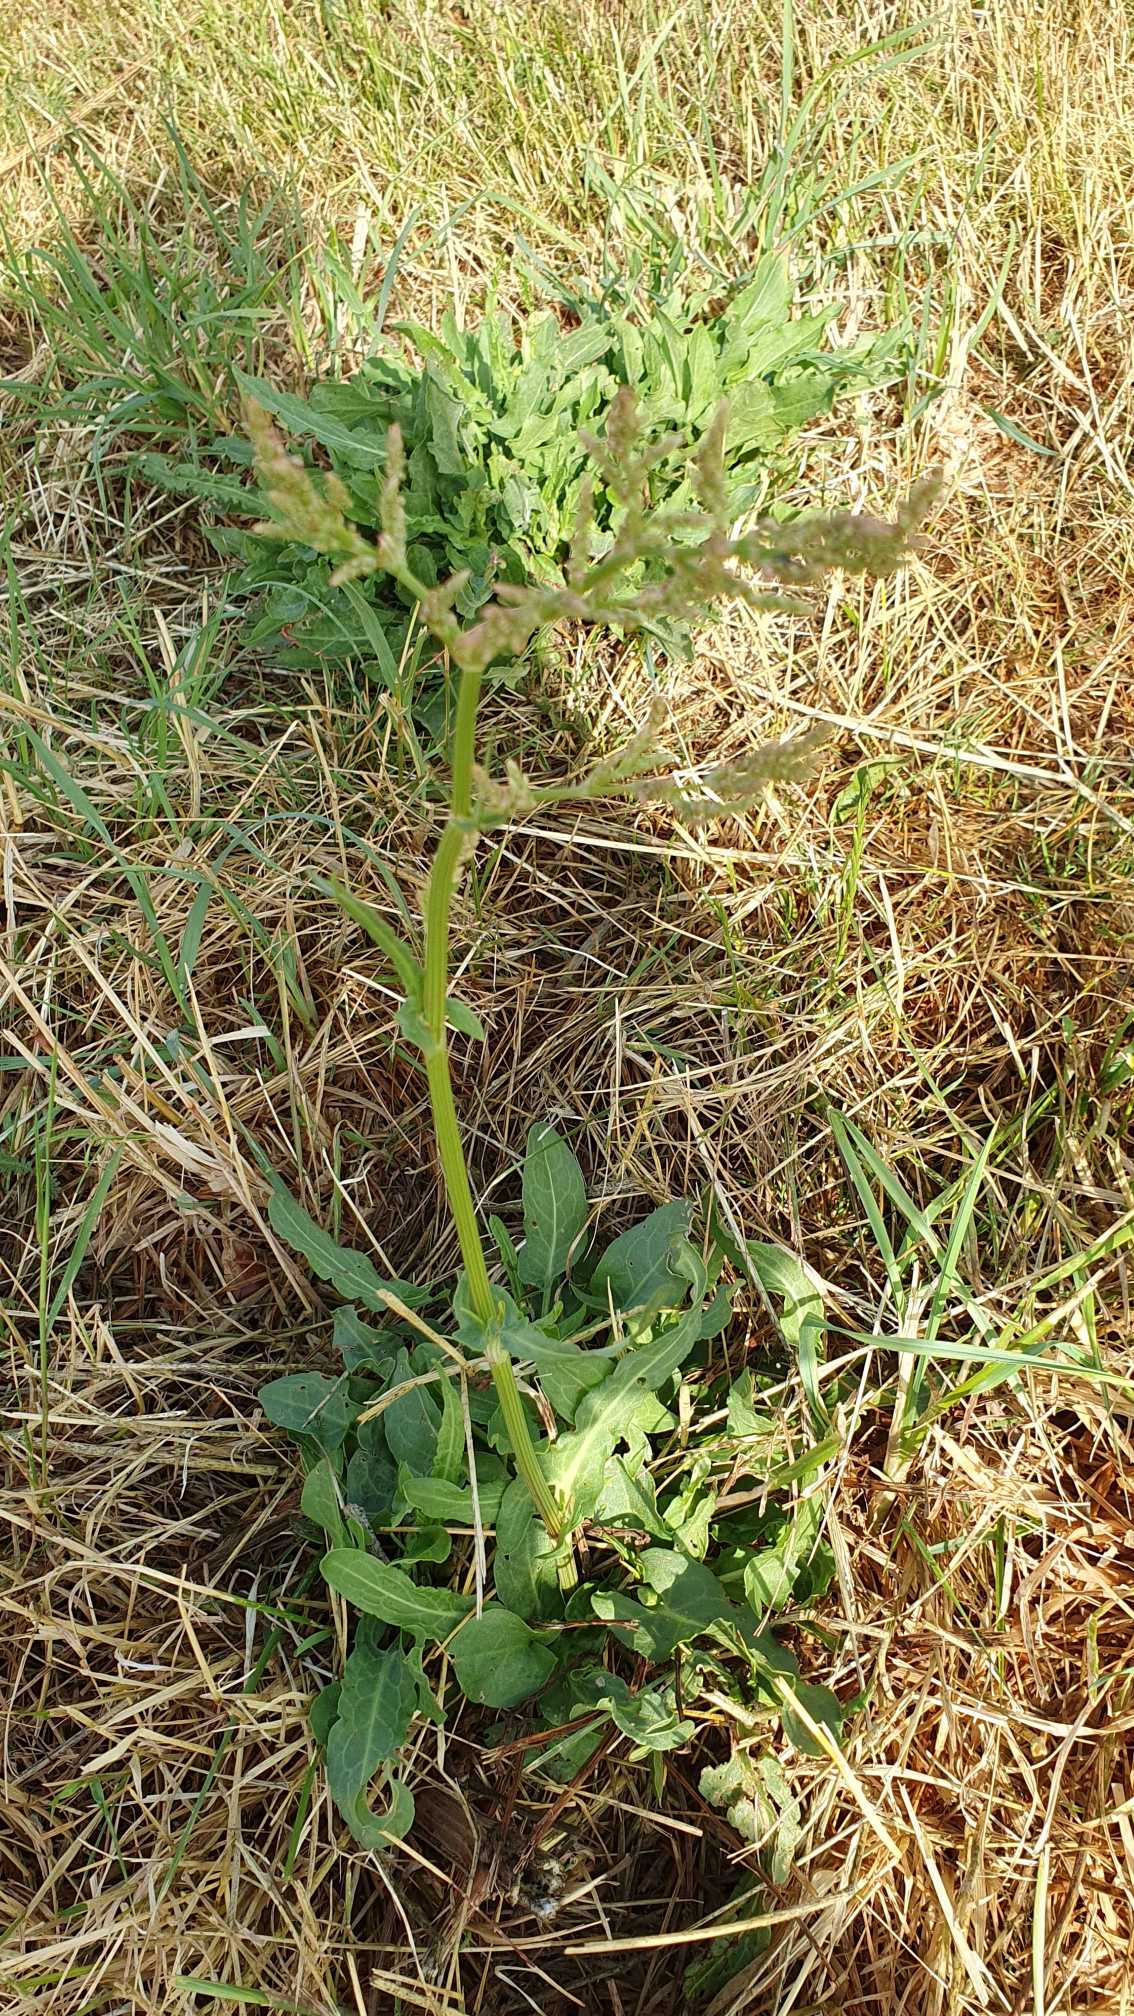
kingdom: Plantae
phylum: Tracheophyta
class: Magnoliopsida
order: Caryophyllales
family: Polygonaceae
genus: Rumex
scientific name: Rumex thyrsiflorus
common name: Dusk-syre
